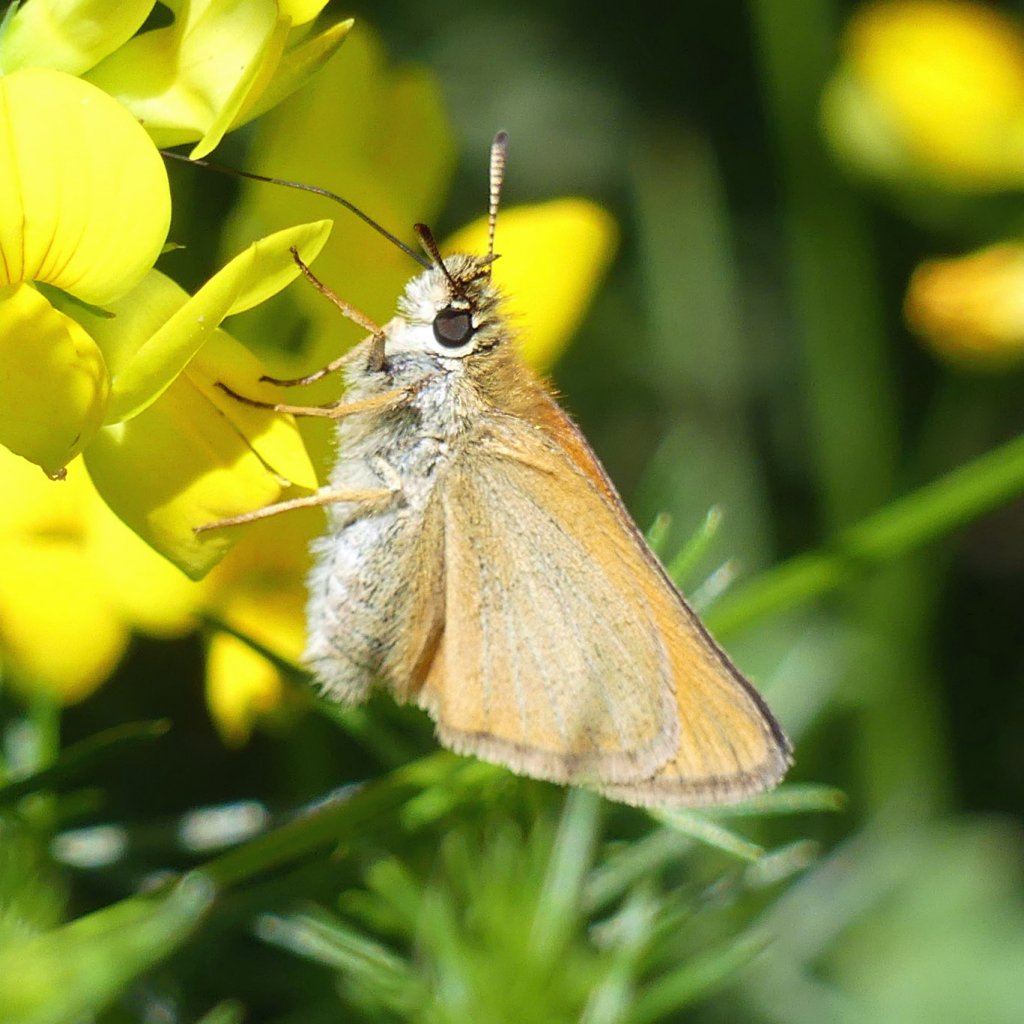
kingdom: Animalia
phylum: Arthropoda
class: Insecta
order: Lepidoptera
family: Hesperiidae
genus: Thymelicus
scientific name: Thymelicus lineola
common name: European Skipper
